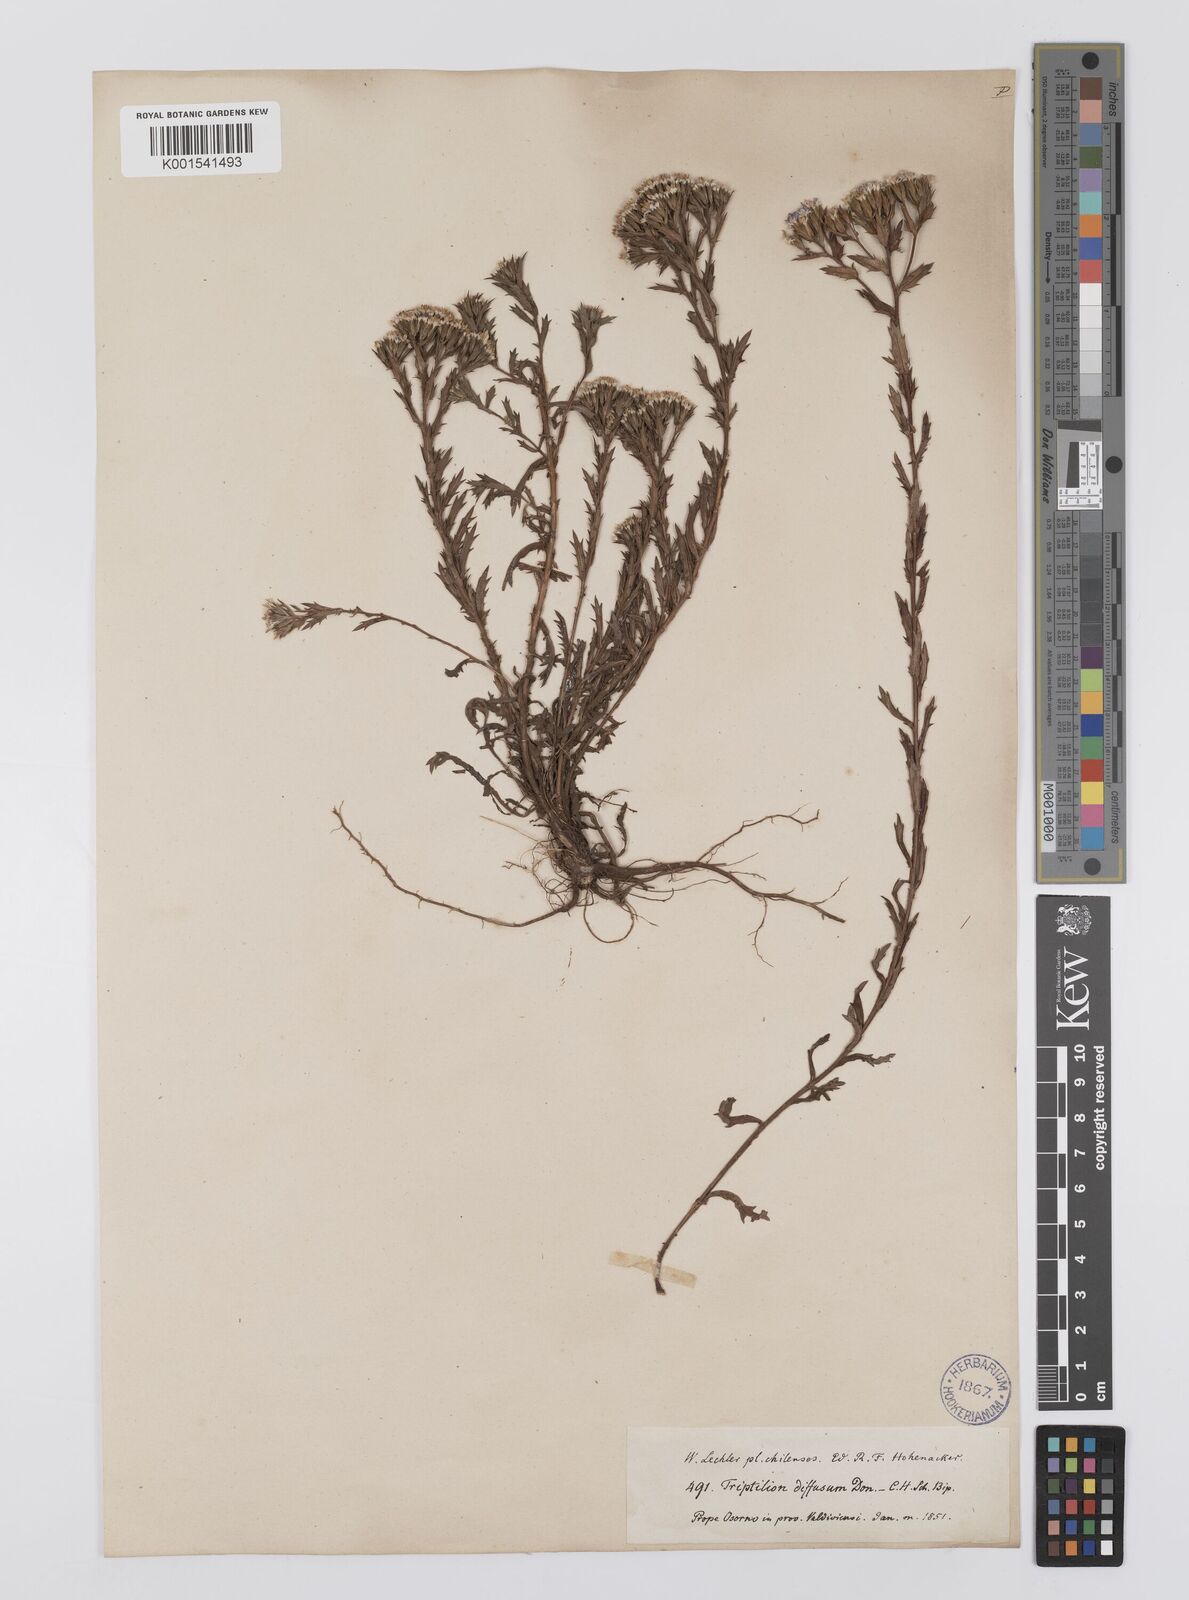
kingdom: Plantae
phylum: Tracheophyta
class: Magnoliopsida
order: Asterales
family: Asteraceae
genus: Triptilion
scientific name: Triptilion spinosum
